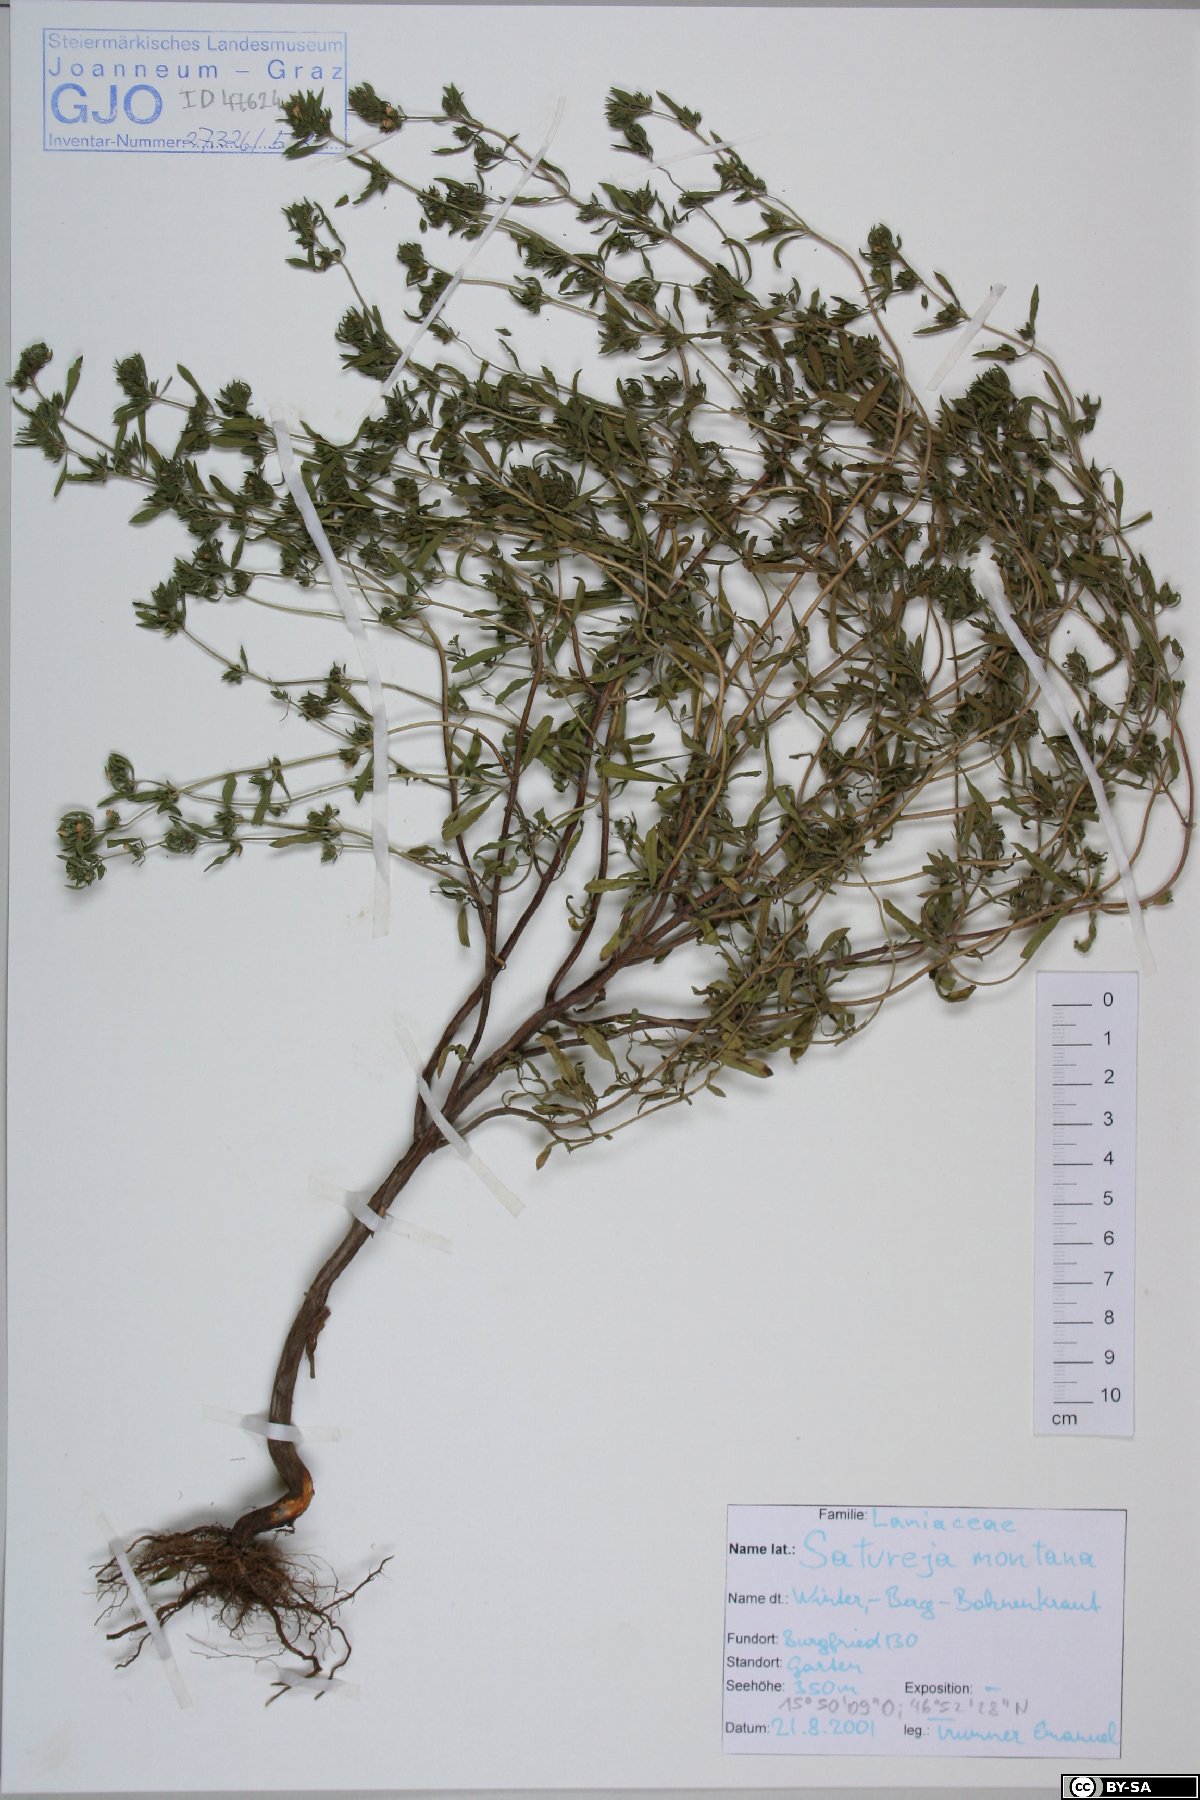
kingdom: Plantae
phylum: Tracheophyta
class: Magnoliopsida
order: Lamiales
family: Lamiaceae
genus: Satureja
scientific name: Satureja montana
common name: Winter savory
